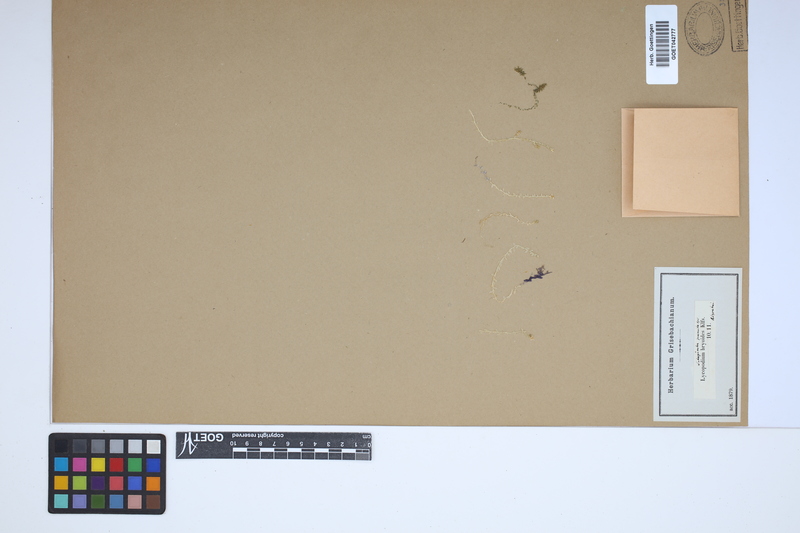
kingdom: Plantae
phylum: Tracheophyta
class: Lycopodiopsida
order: Selaginellales
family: Selaginellaceae
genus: Selaginella
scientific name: Selaginella pygmaea
